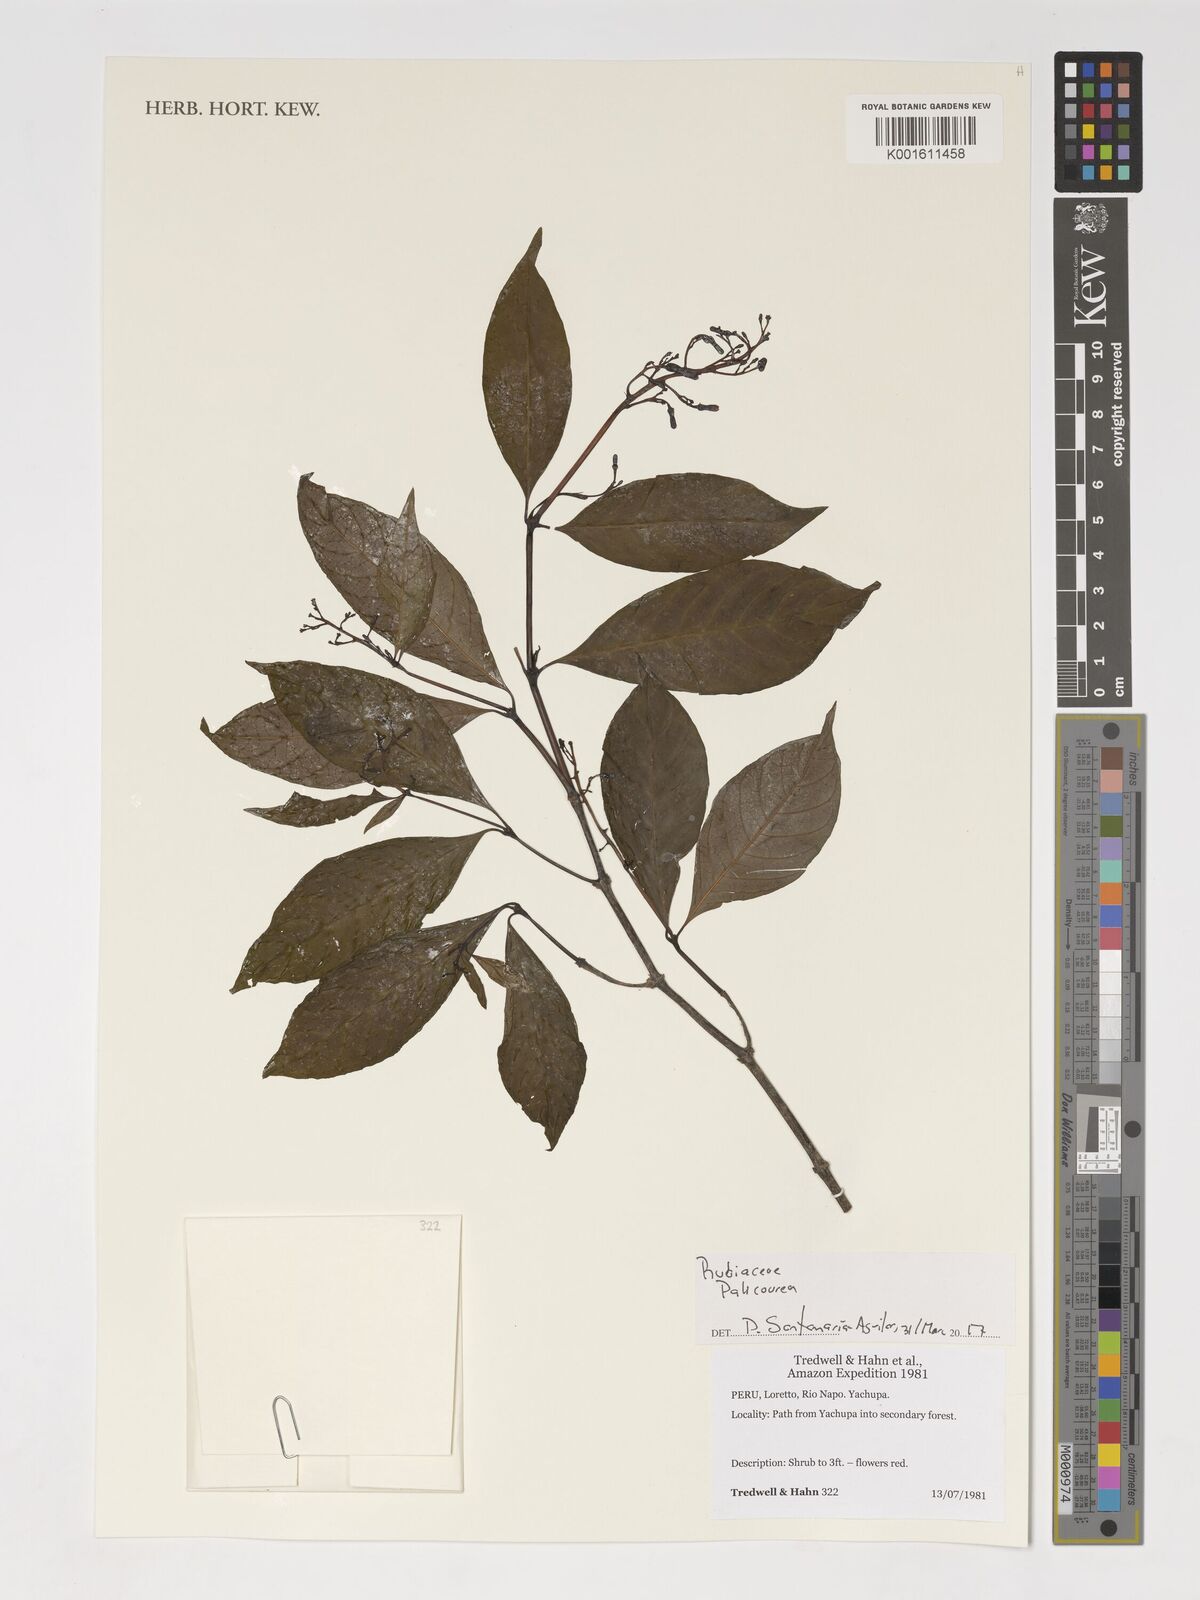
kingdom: Plantae
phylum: Tracheophyta
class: Magnoliopsida
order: Gentianales
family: Rubiaceae
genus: Palicourea
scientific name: Palicourea
